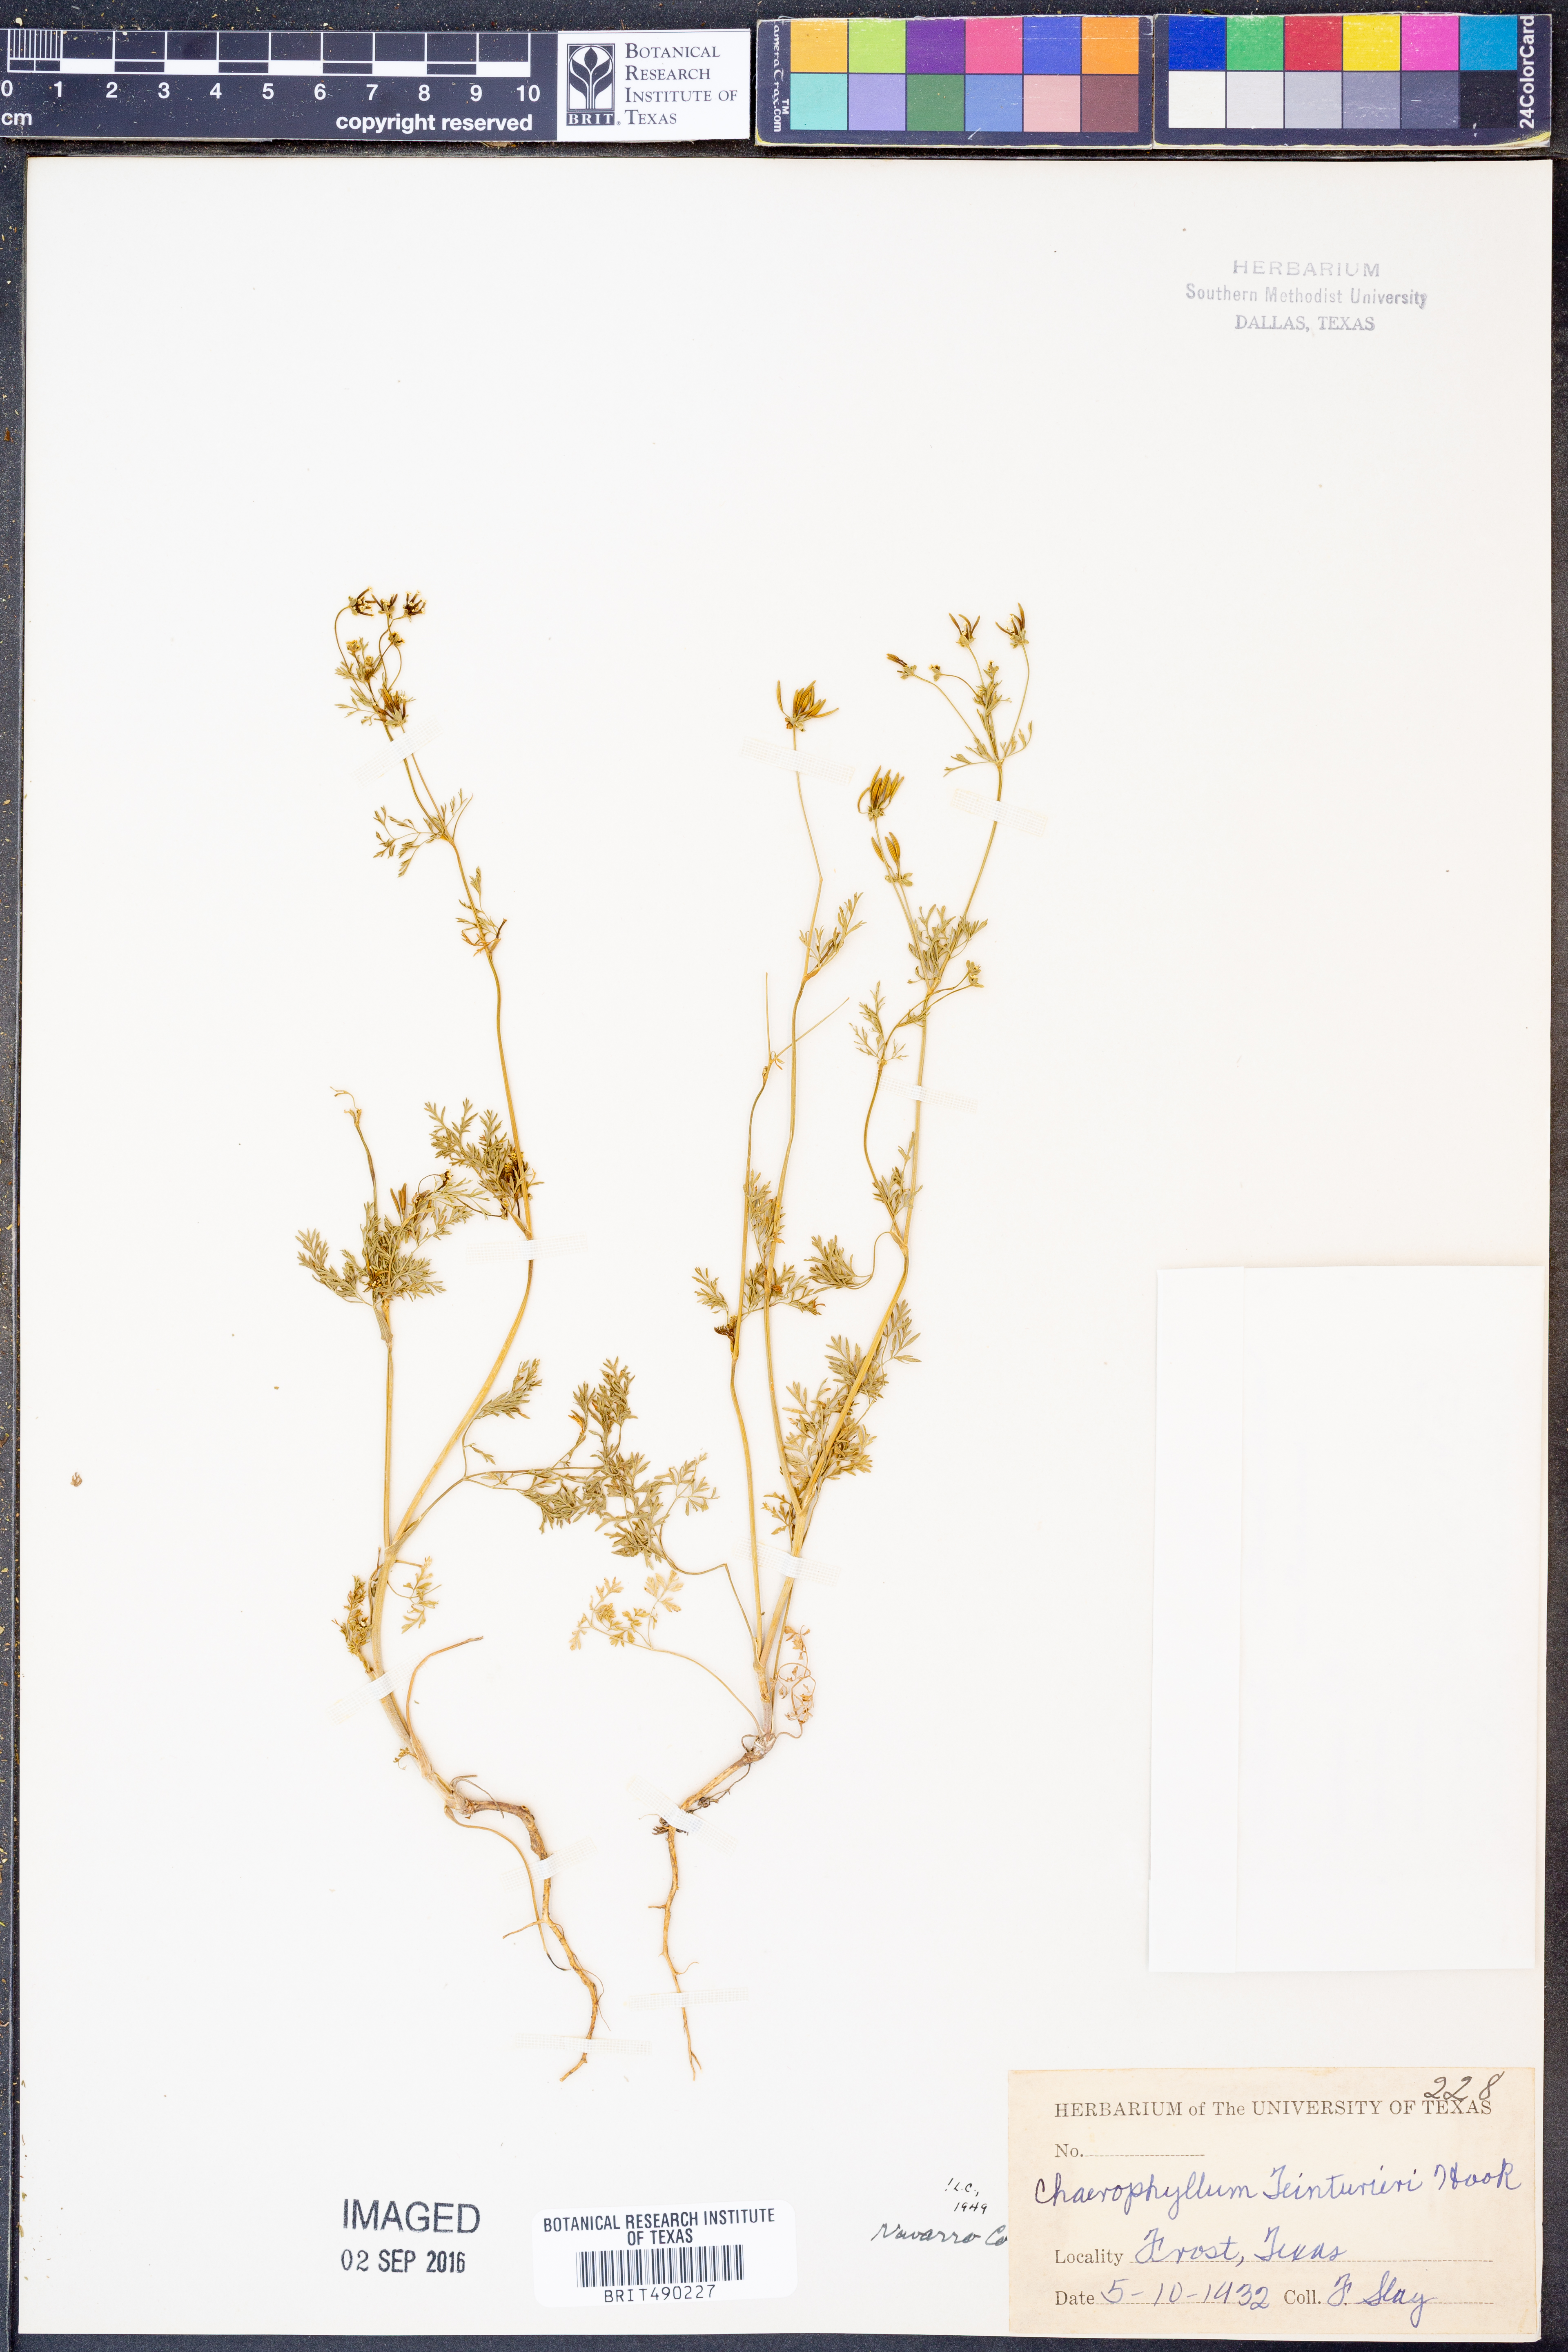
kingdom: Plantae
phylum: Tracheophyta
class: Magnoliopsida
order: Apiales
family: Apiaceae
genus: Chaerophyllum
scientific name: Chaerophyllum tainturieri
